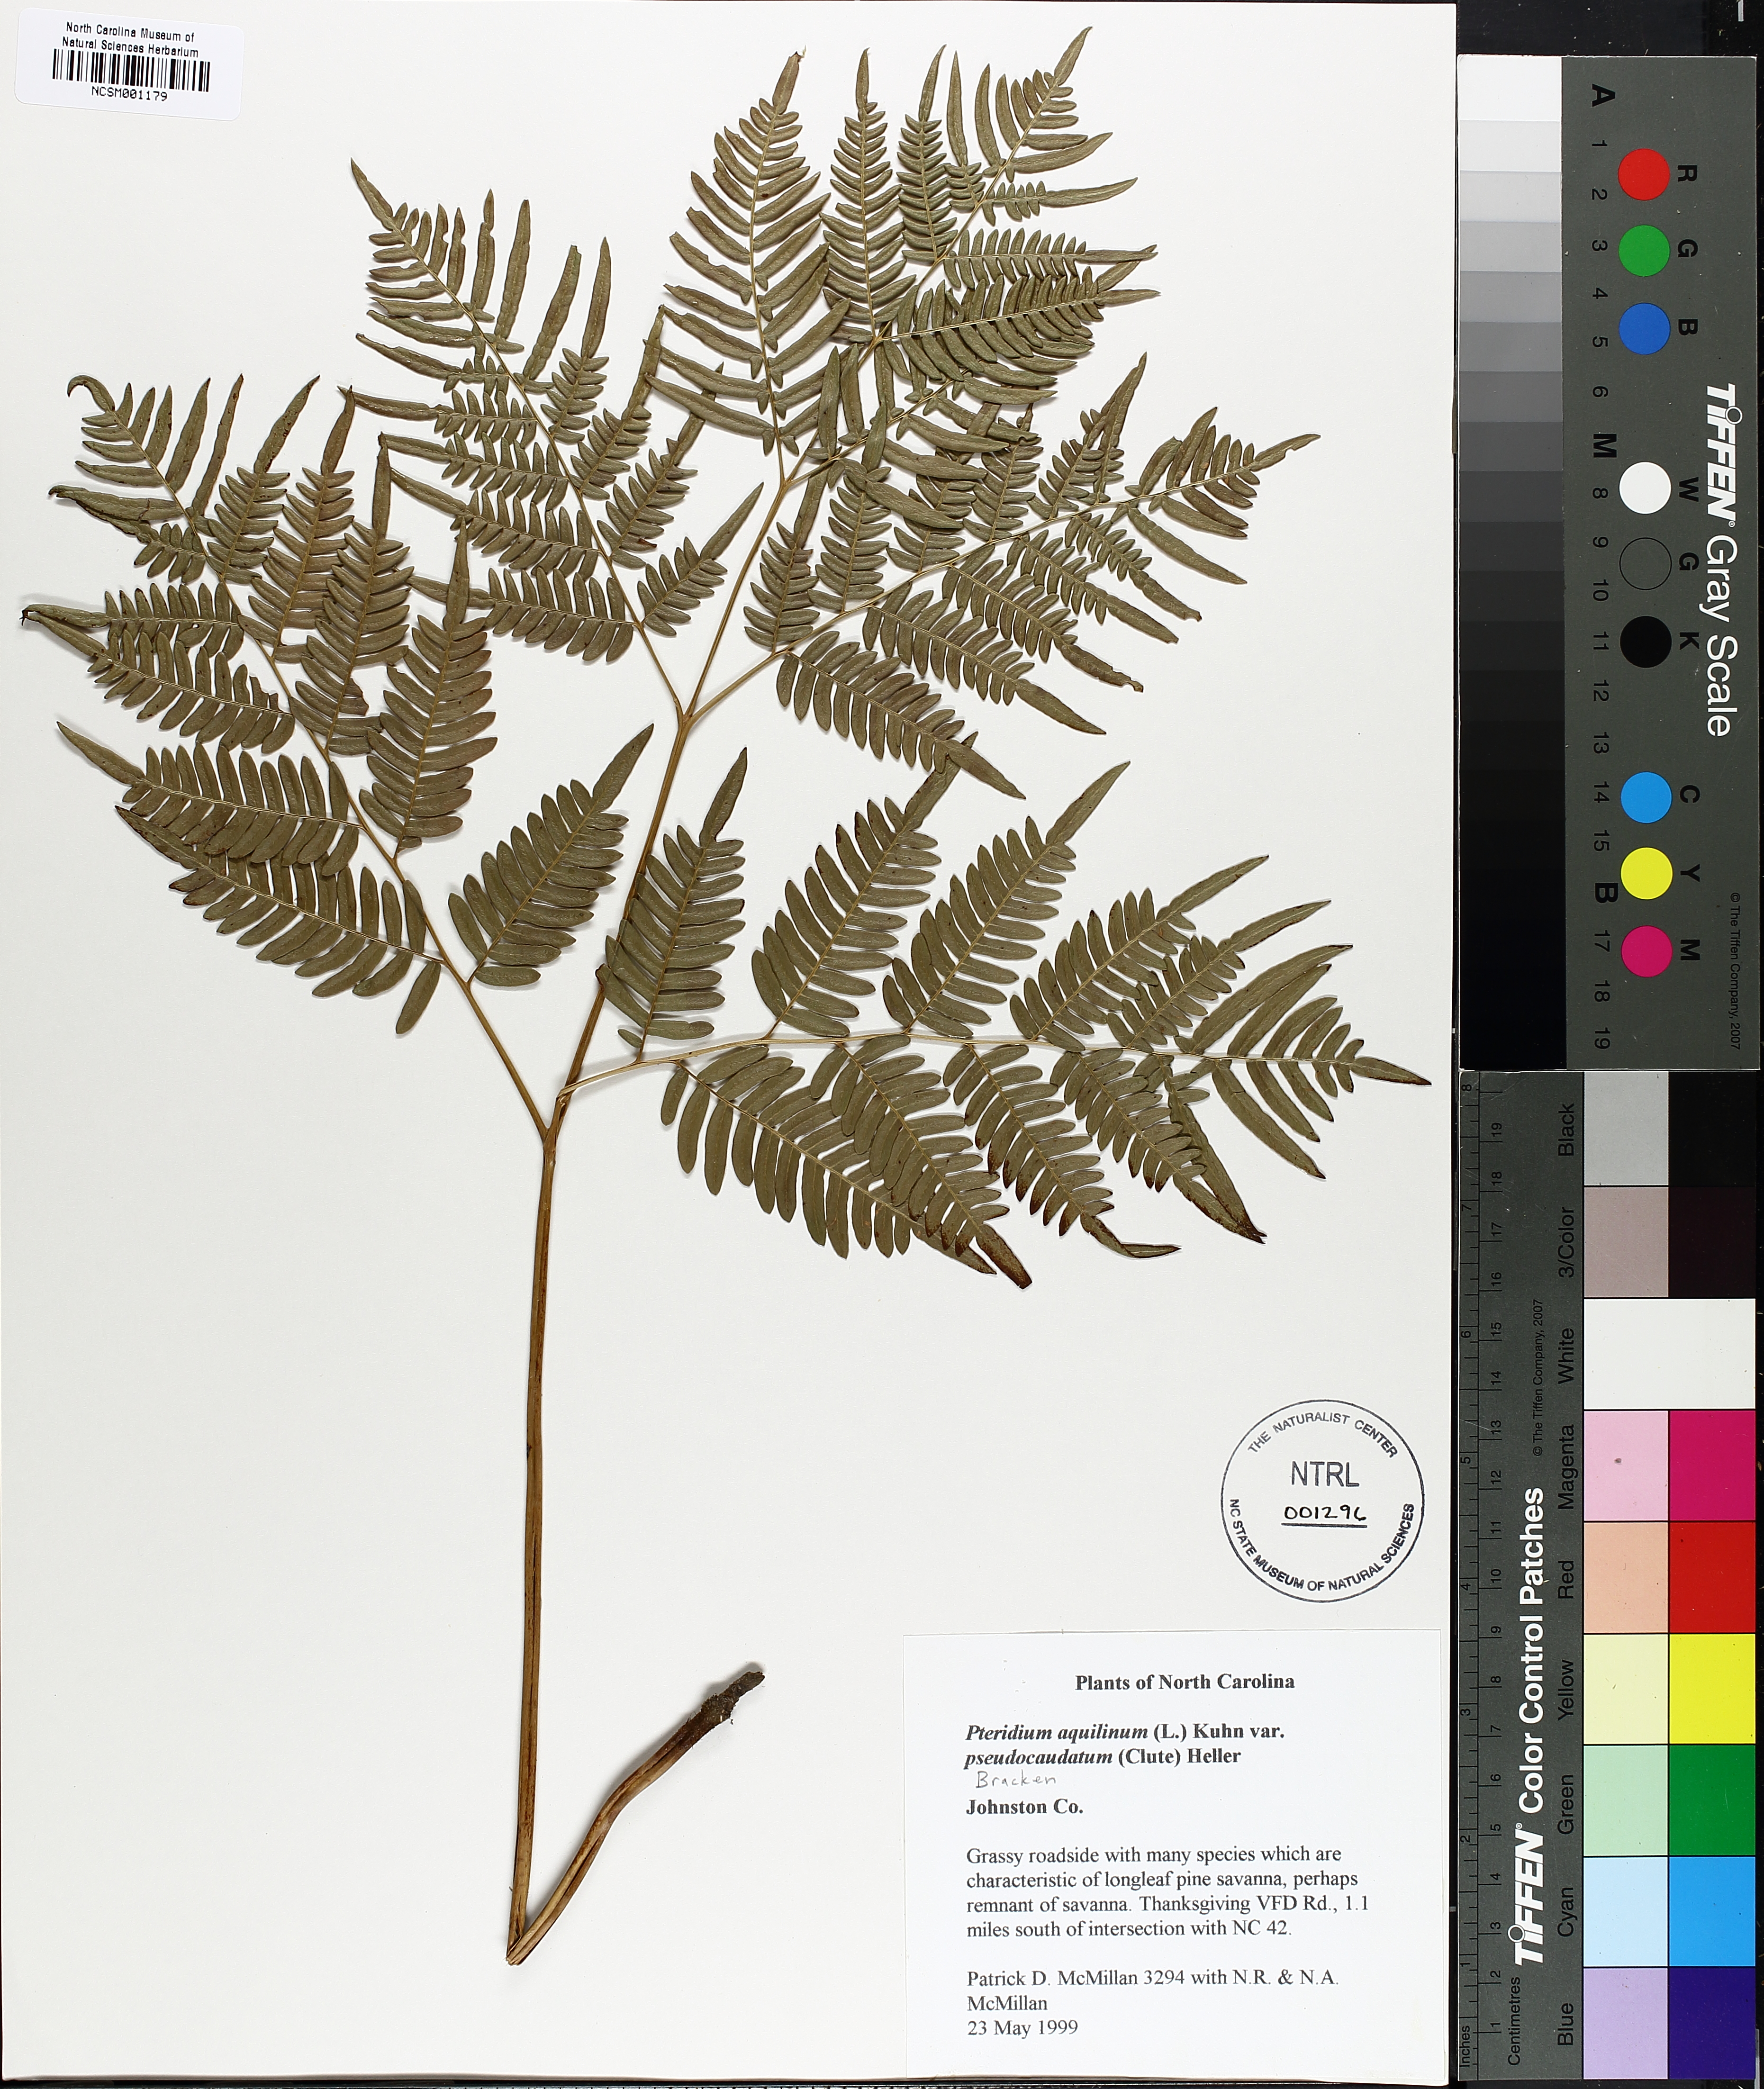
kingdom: Plantae
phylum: Tracheophyta
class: Polypodiopsida
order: Polypodiales
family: Dennstaedtiaceae
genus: Pteridium
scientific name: Pteridium aquilinum
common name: Bracken
